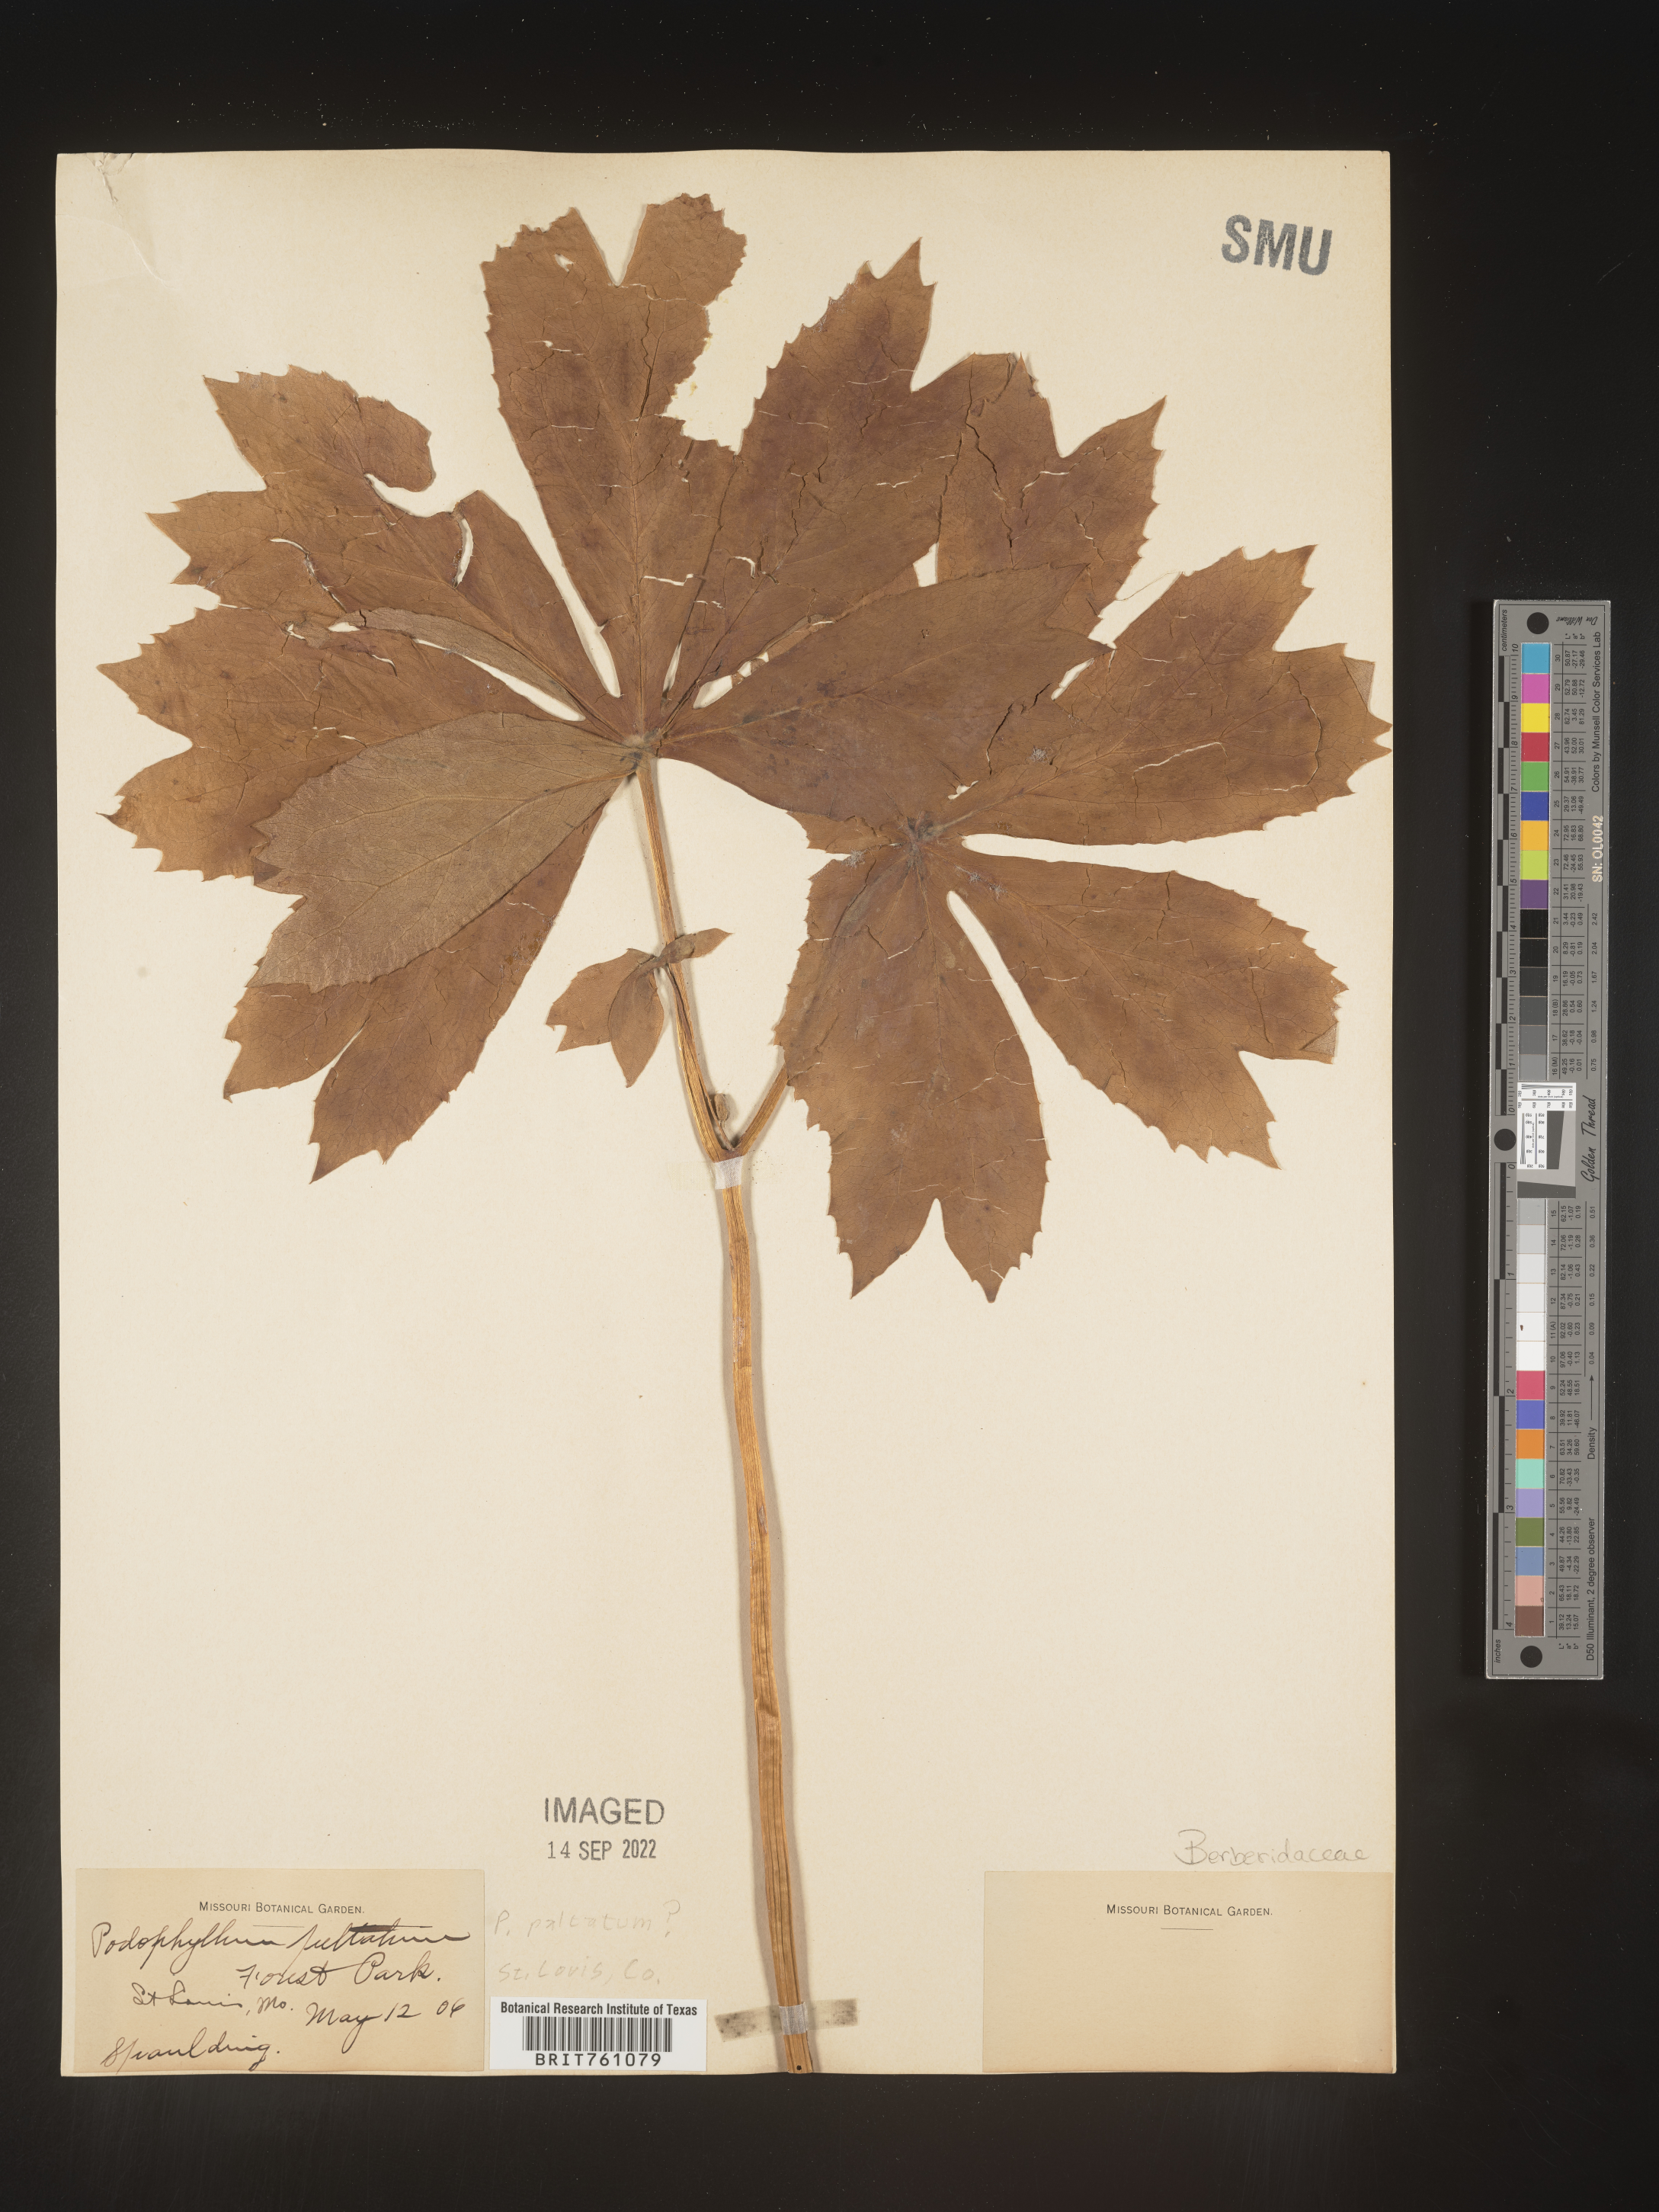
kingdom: Plantae
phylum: Tracheophyta
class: Magnoliopsida
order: Ranunculales
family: Berberidaceae
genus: Podophyllum
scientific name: Podophyllum peltatum
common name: Wild mandrake
